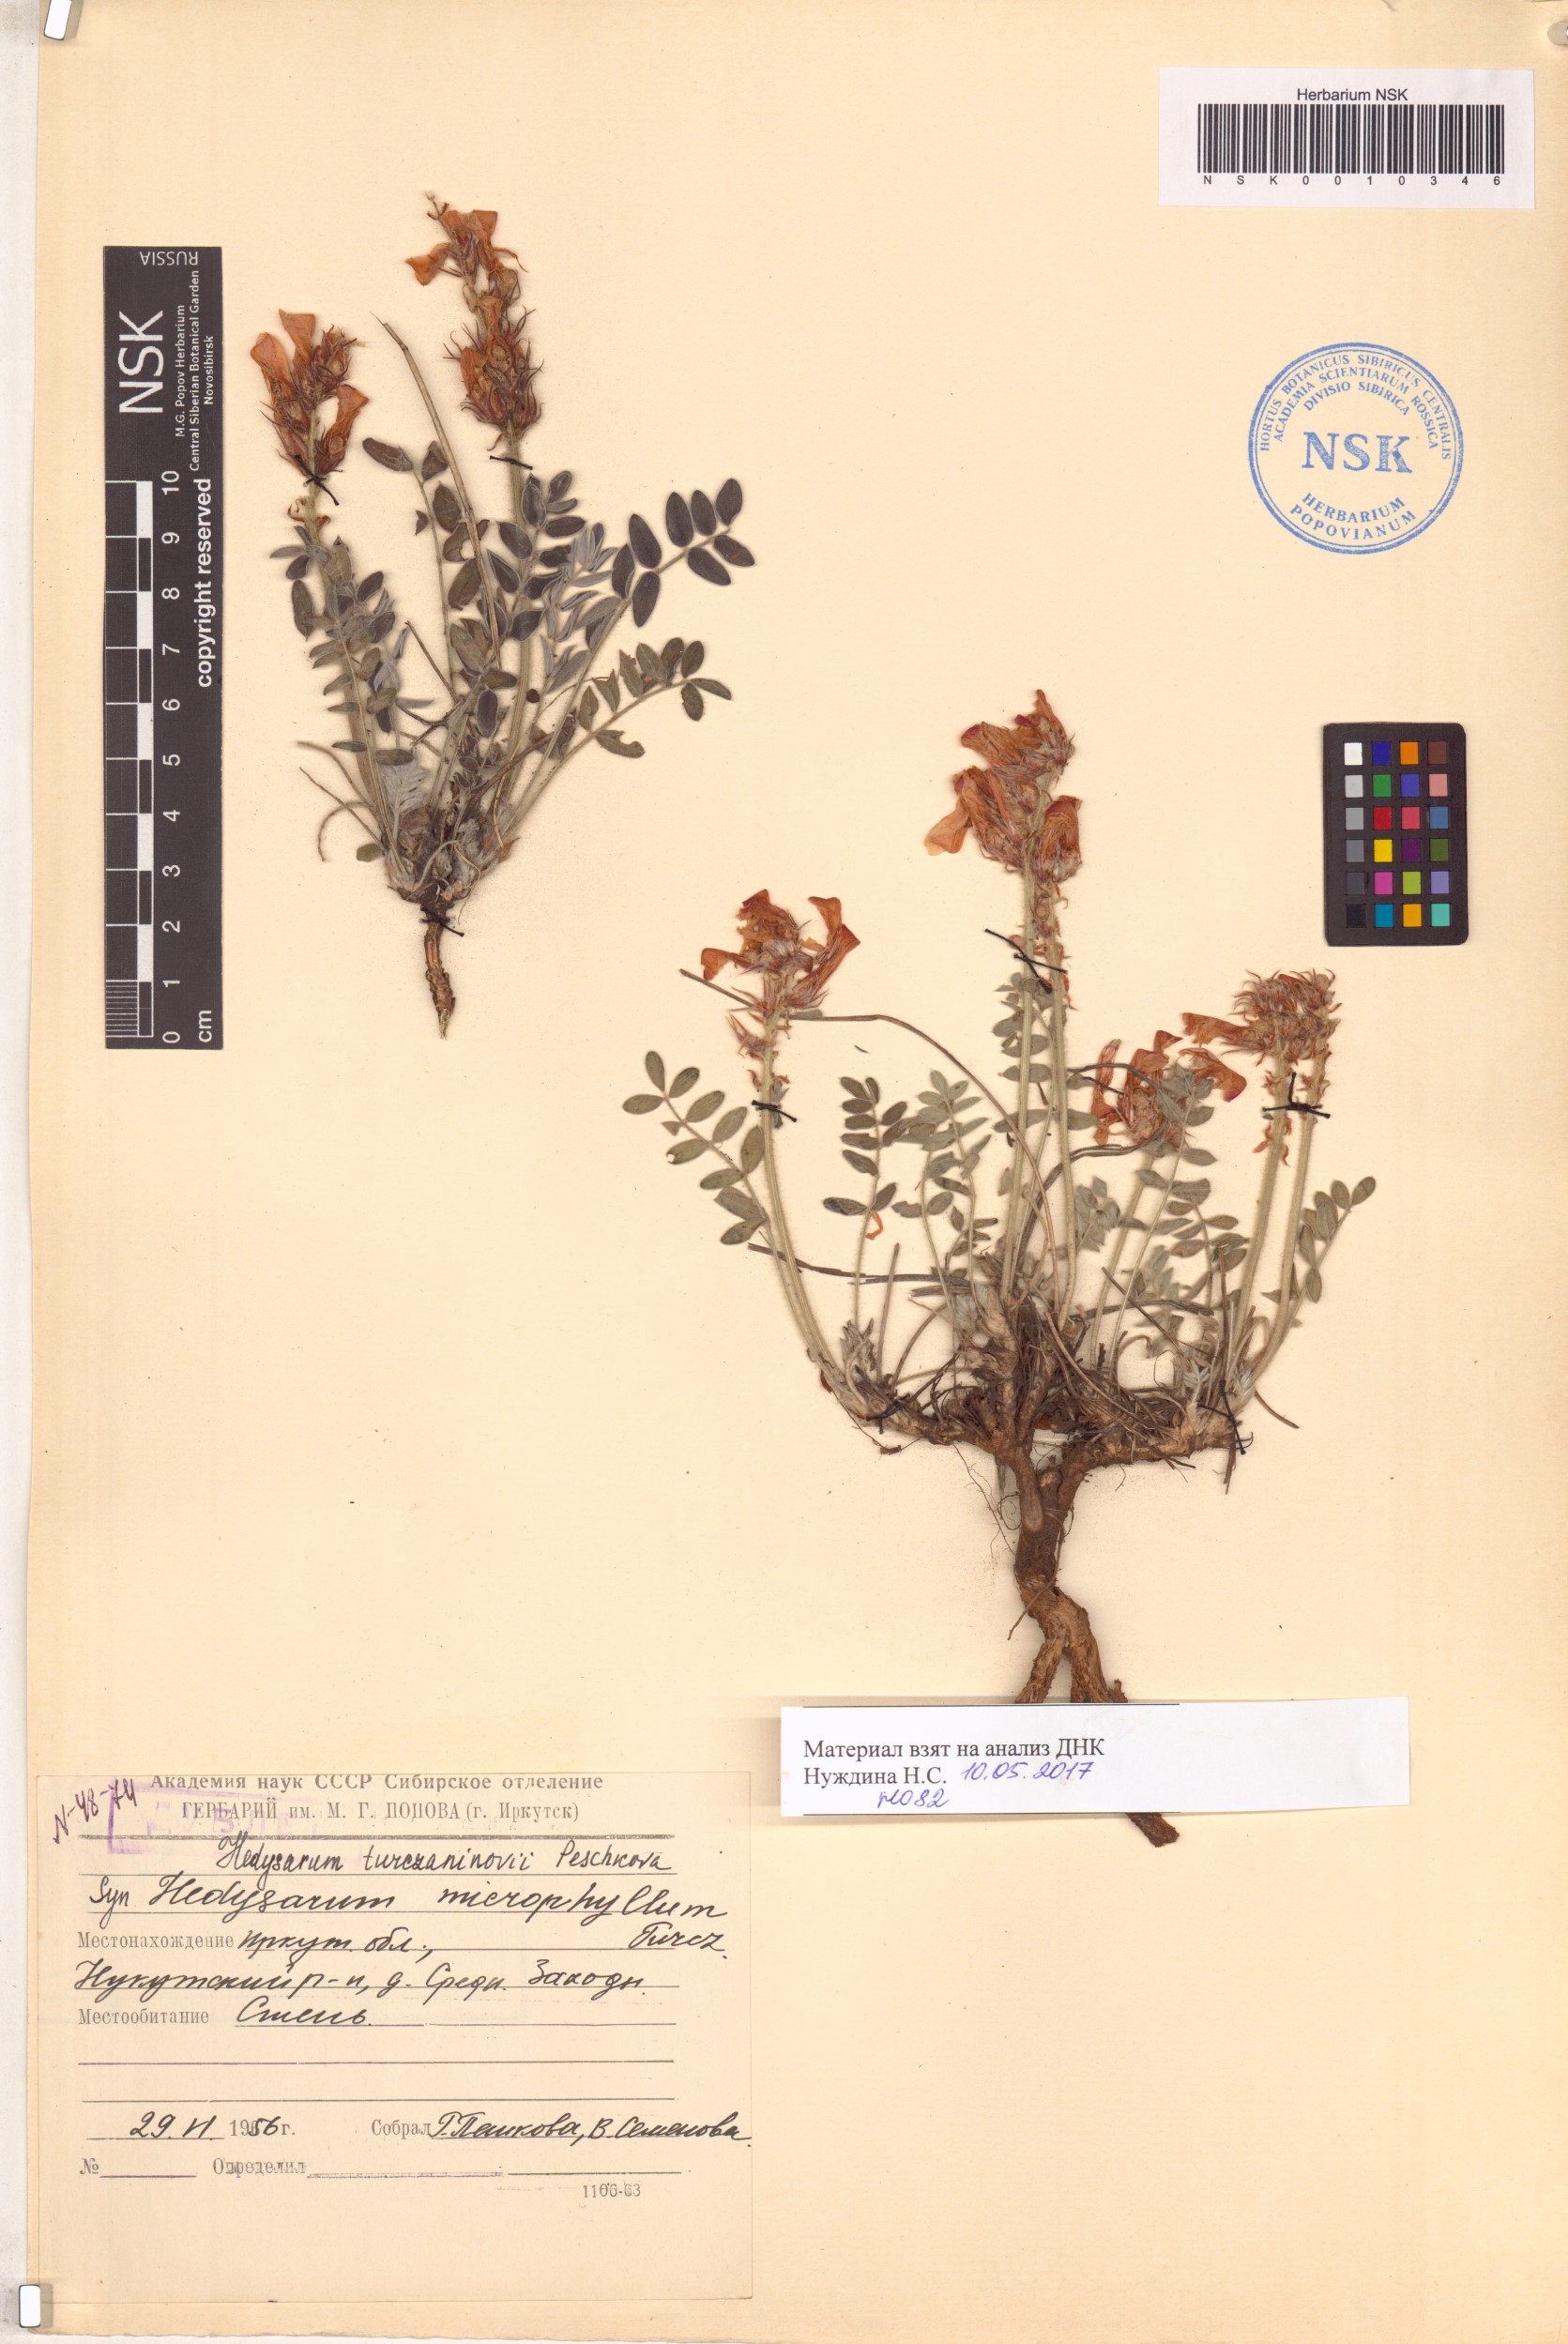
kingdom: Plantae
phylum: Tracheophyta
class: Magnoliopsida
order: Fabales
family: Fabaceae
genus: Hedysarum
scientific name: Hedysarum turczaninovii
